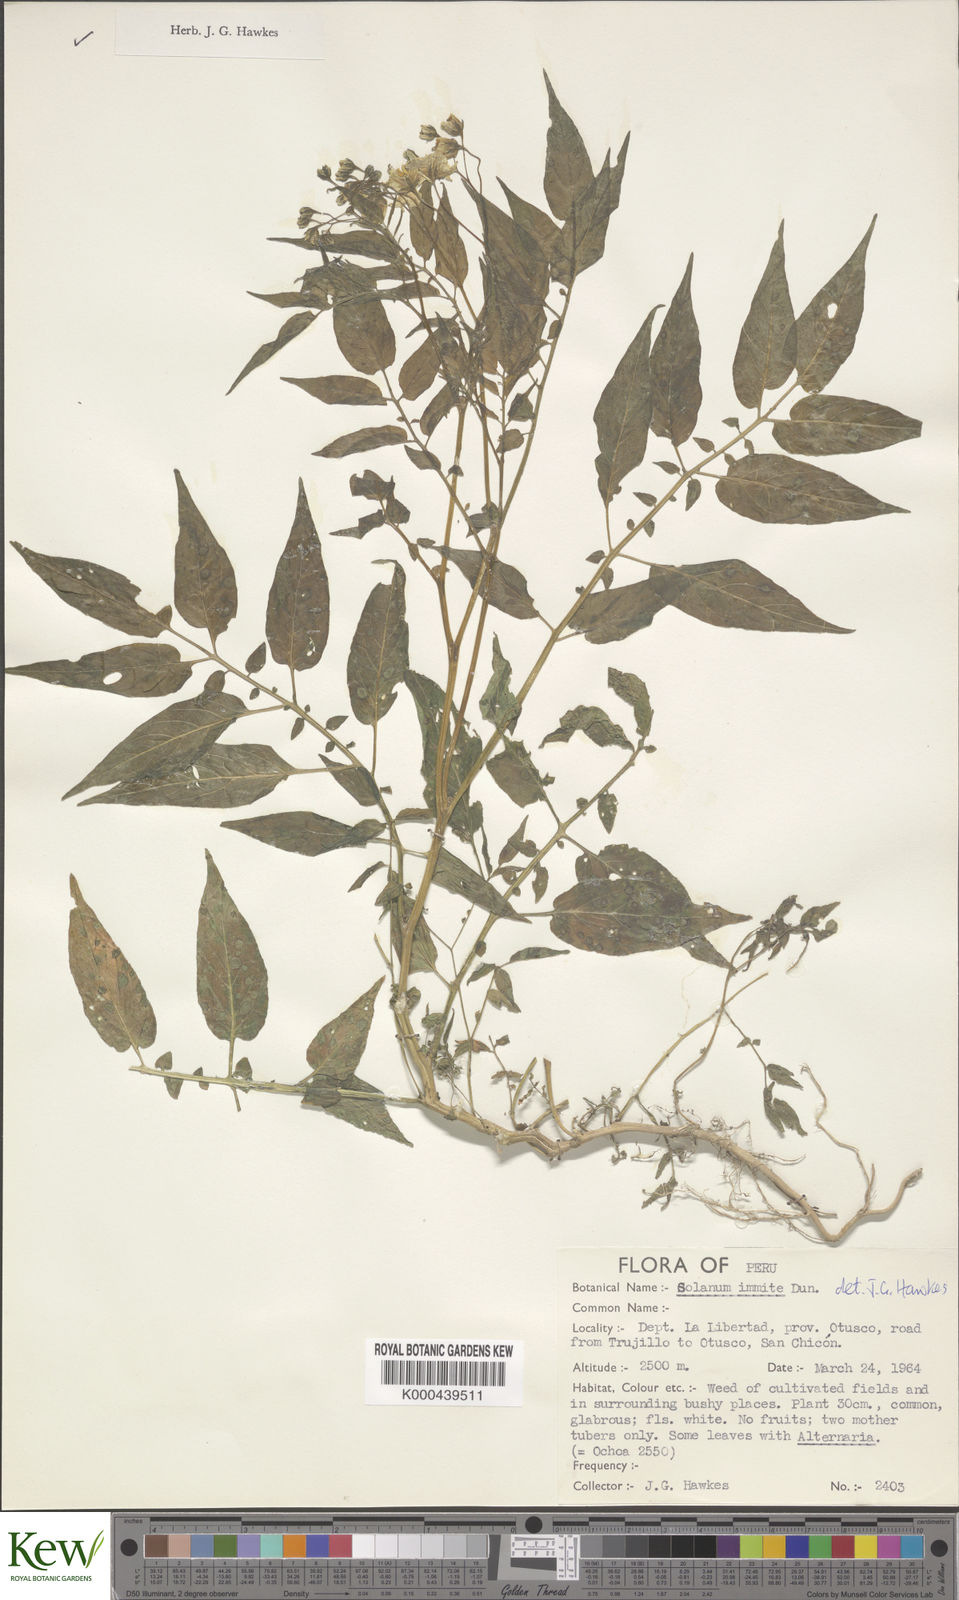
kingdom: Plantae
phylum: Tracheophyta
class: Magnoliopsida
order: Solanales
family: Solanaceae
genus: Solanum
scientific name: Solanum immite
